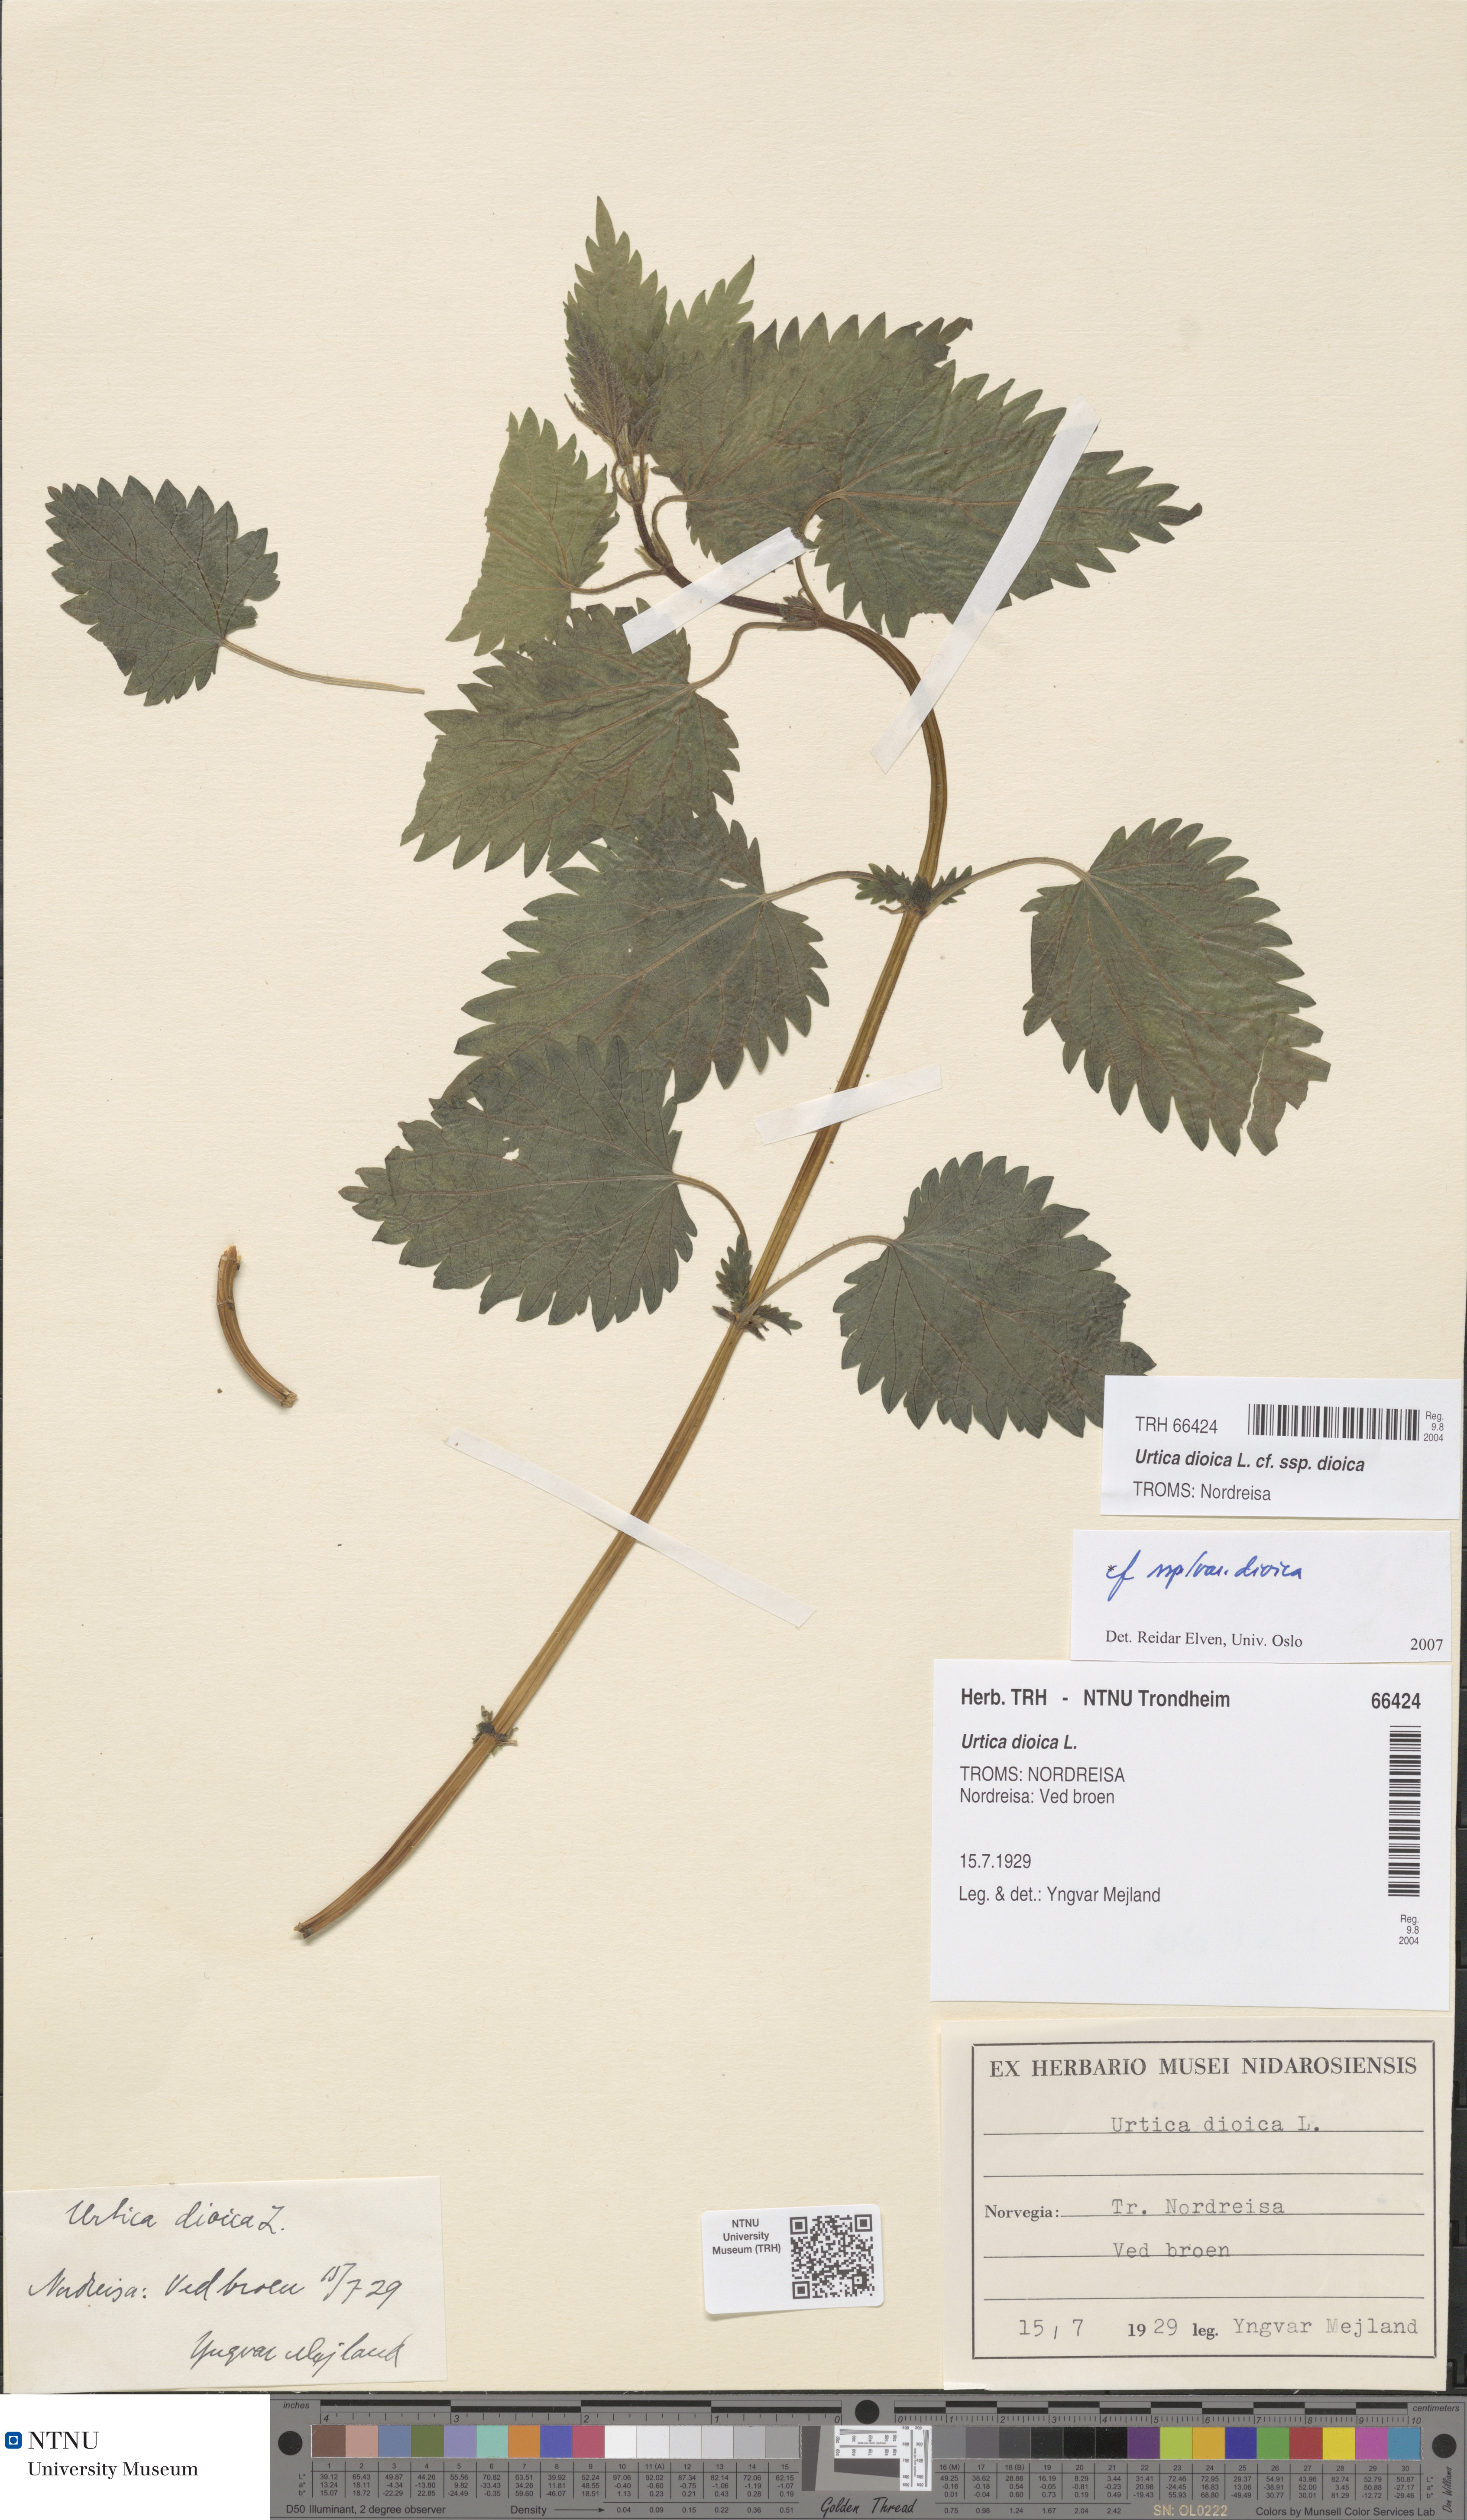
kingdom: Plantae
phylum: Tracheophyta
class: Magnoliopsida
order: Rosales
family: Urticaceae
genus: Urtica
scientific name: Urtica dioica
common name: Common nettle
